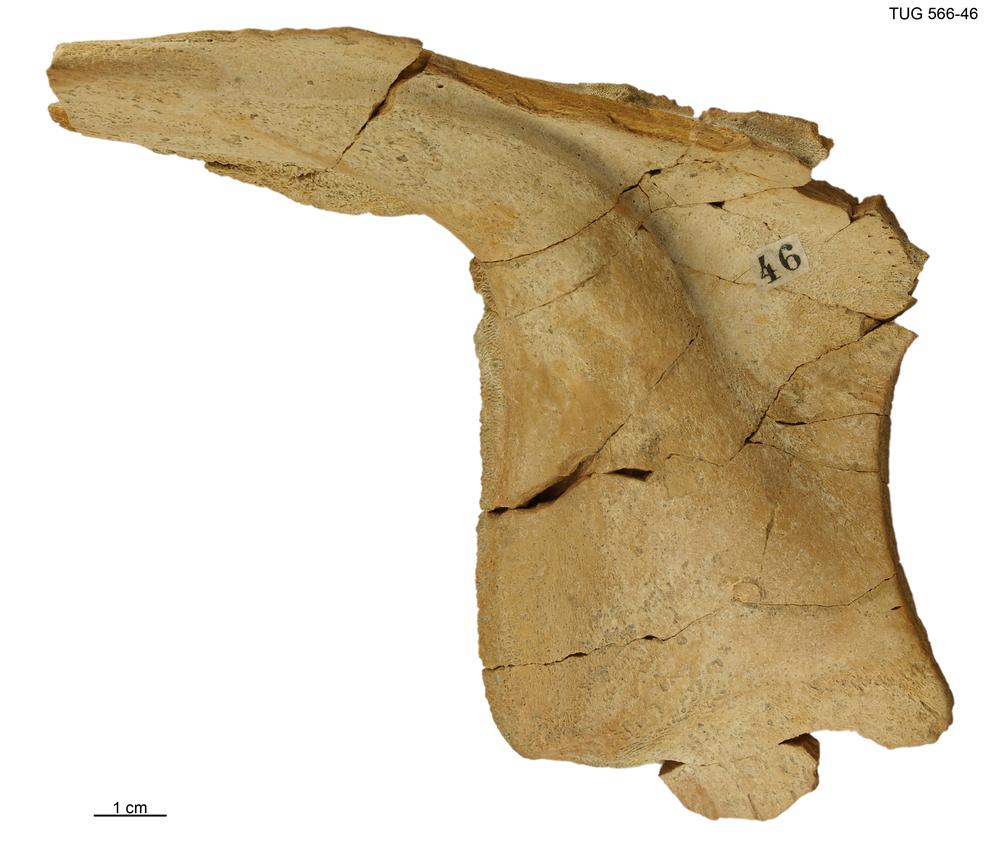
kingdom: Animalia
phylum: Chordata
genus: Homosteus
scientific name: Homosteus latus
